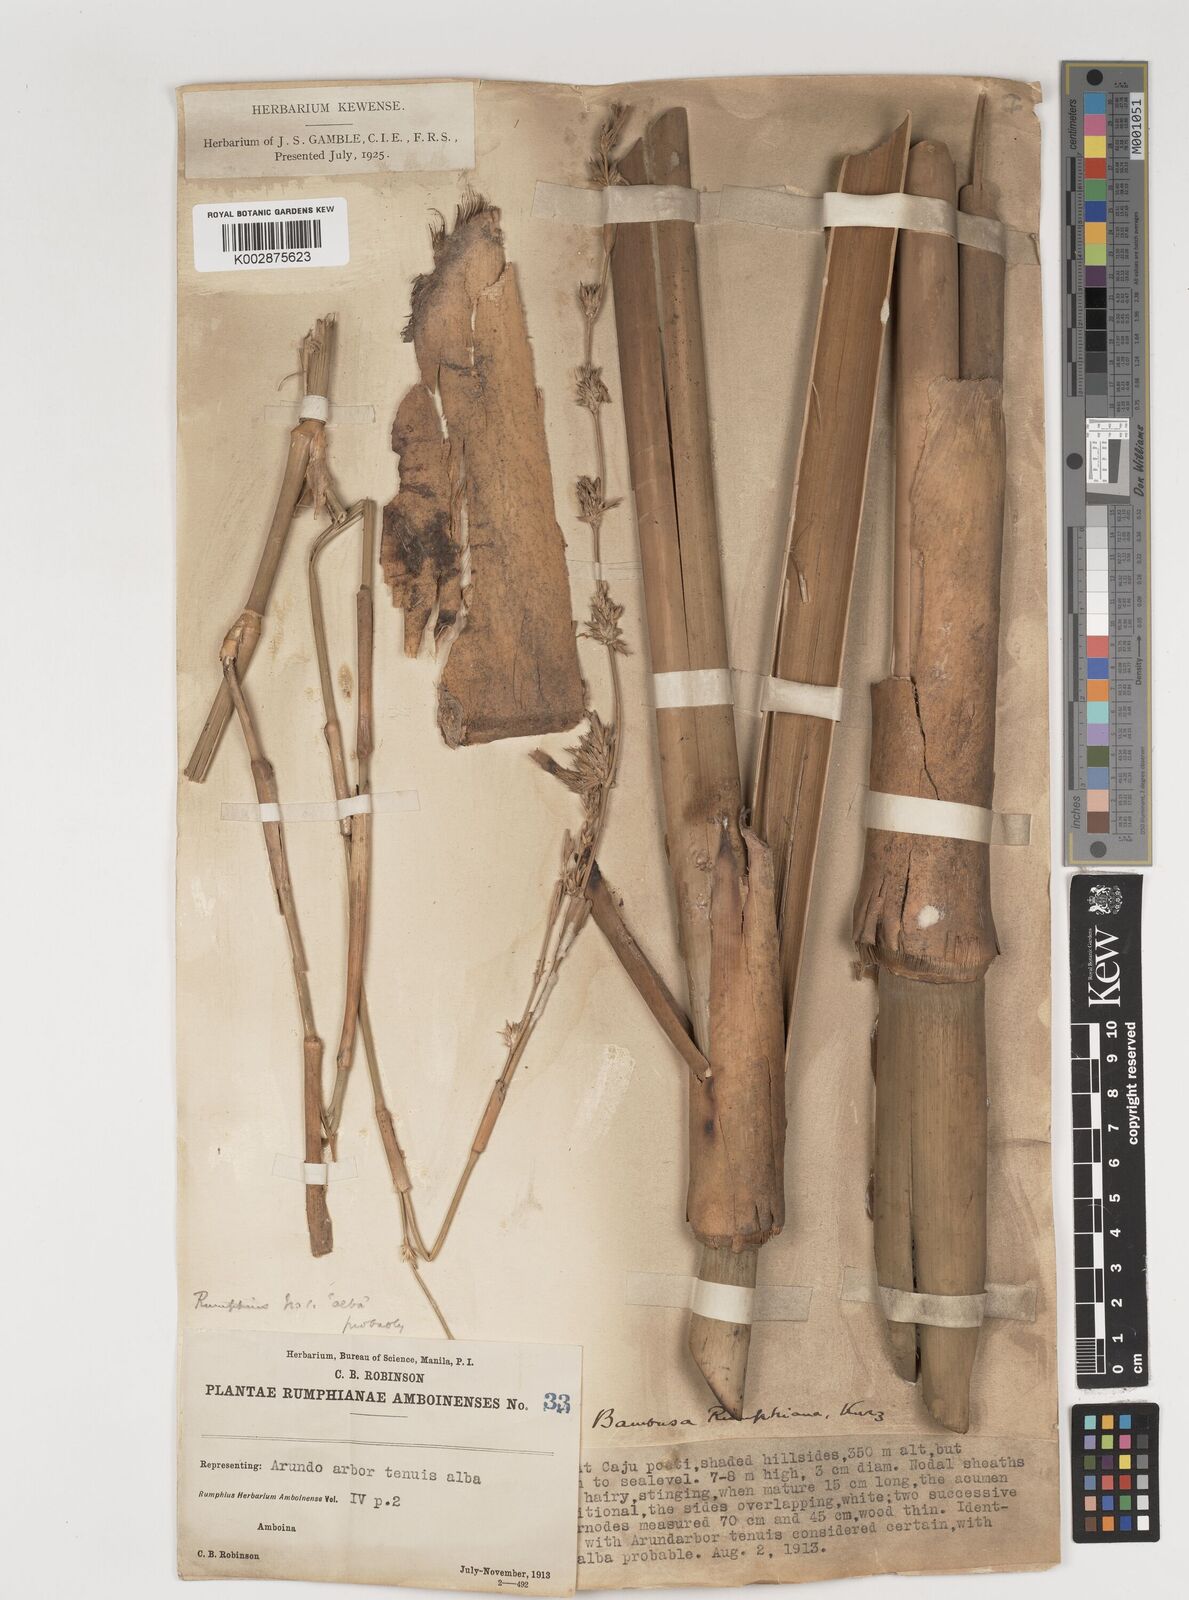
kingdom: Plantae
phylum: Tracheophyta
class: Liliopsida
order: Poales
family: Poaceae
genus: Neololeba
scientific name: Neololeba atra
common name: Cape bamboo
